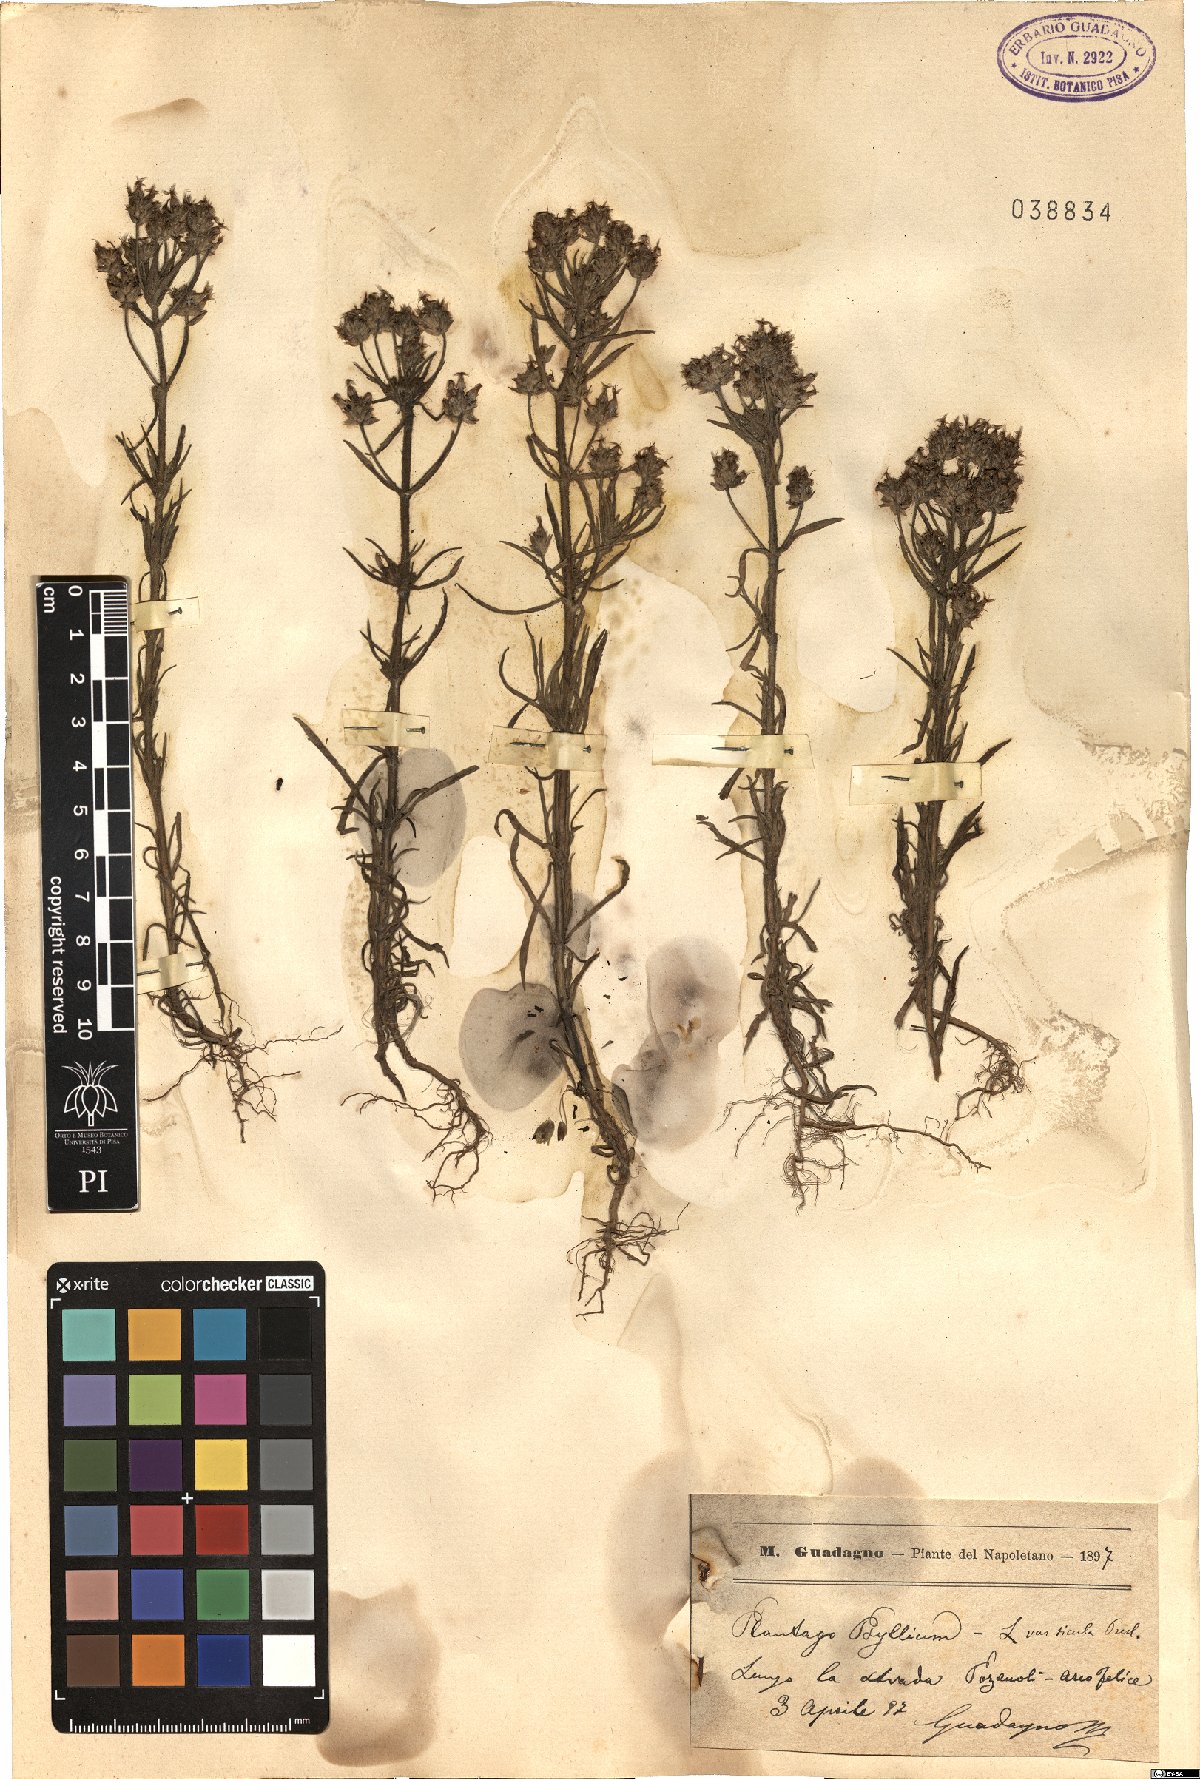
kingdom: Plantae
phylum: Tracheophyta
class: Magnoliopsida
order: Lamiales
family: Plantaginaceae
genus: Plantago
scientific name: Plantago afra
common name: Glandular plantain
